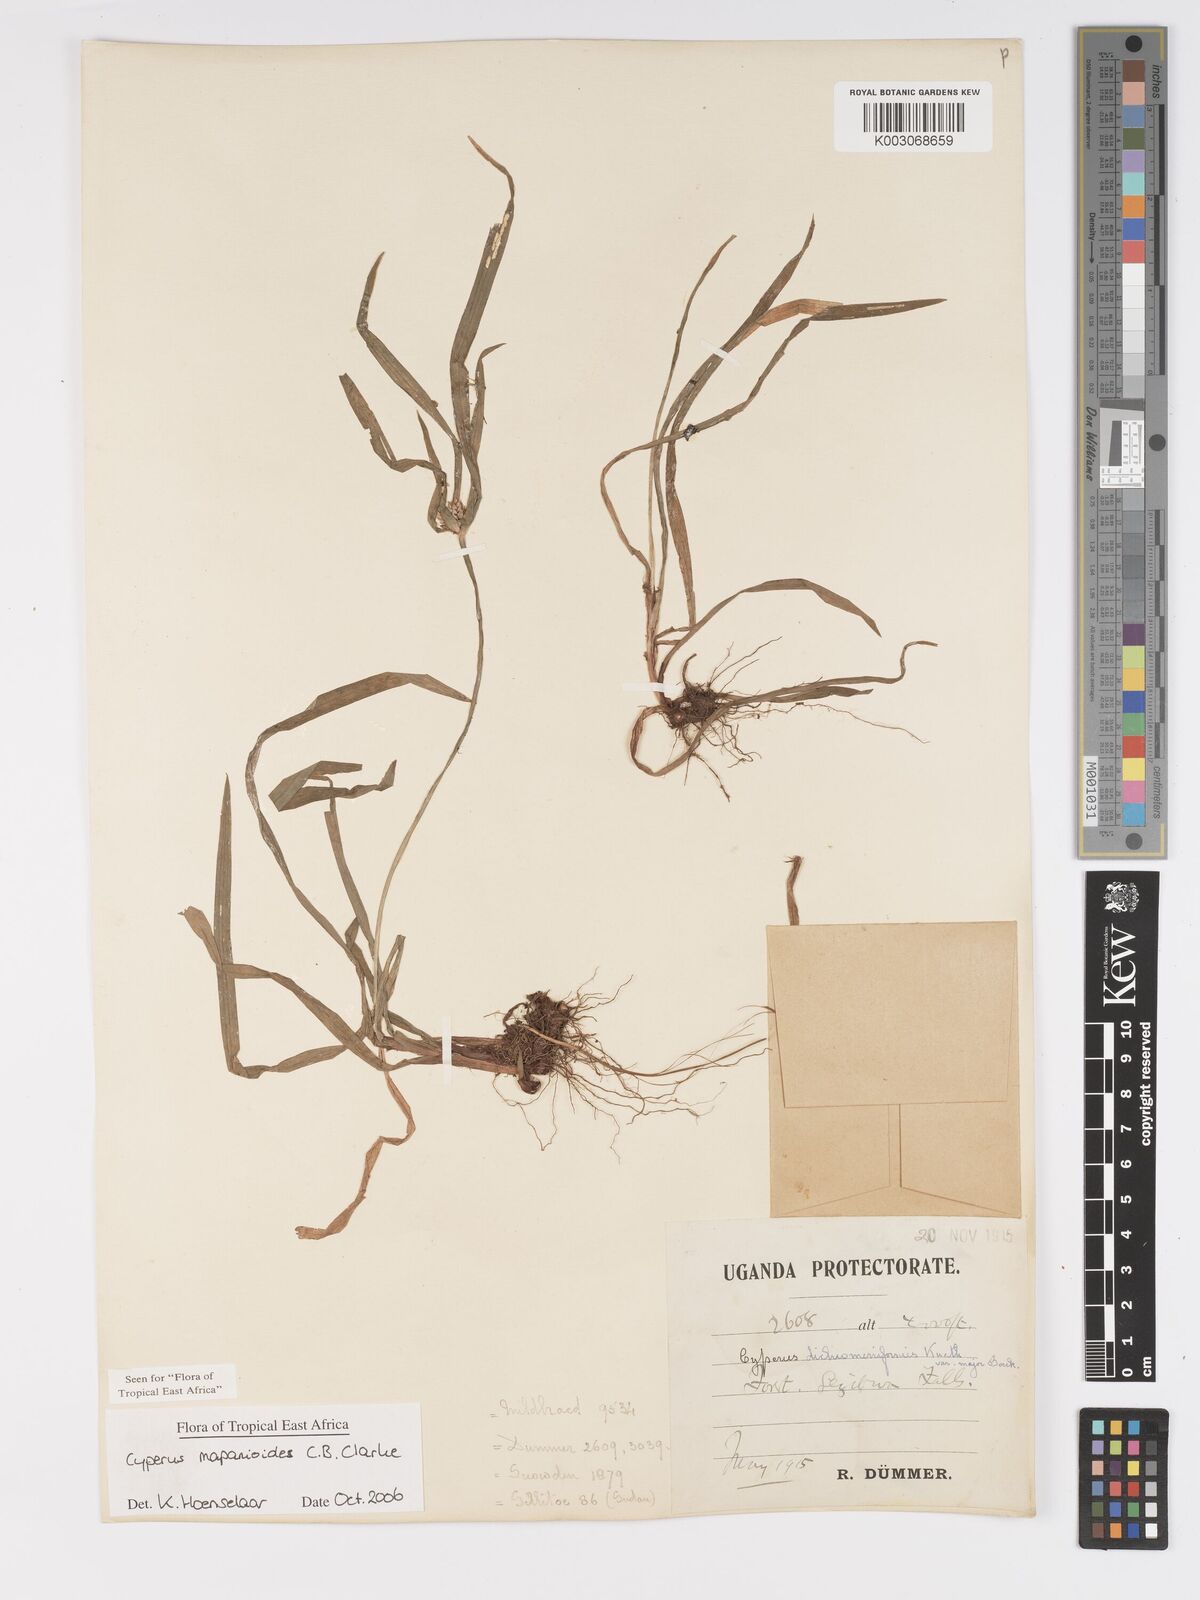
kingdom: Plantae
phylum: Tracheophyta
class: Liliopsida
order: Poales
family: Cyperaceae
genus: Cyperus
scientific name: Cyperus mapanioides
